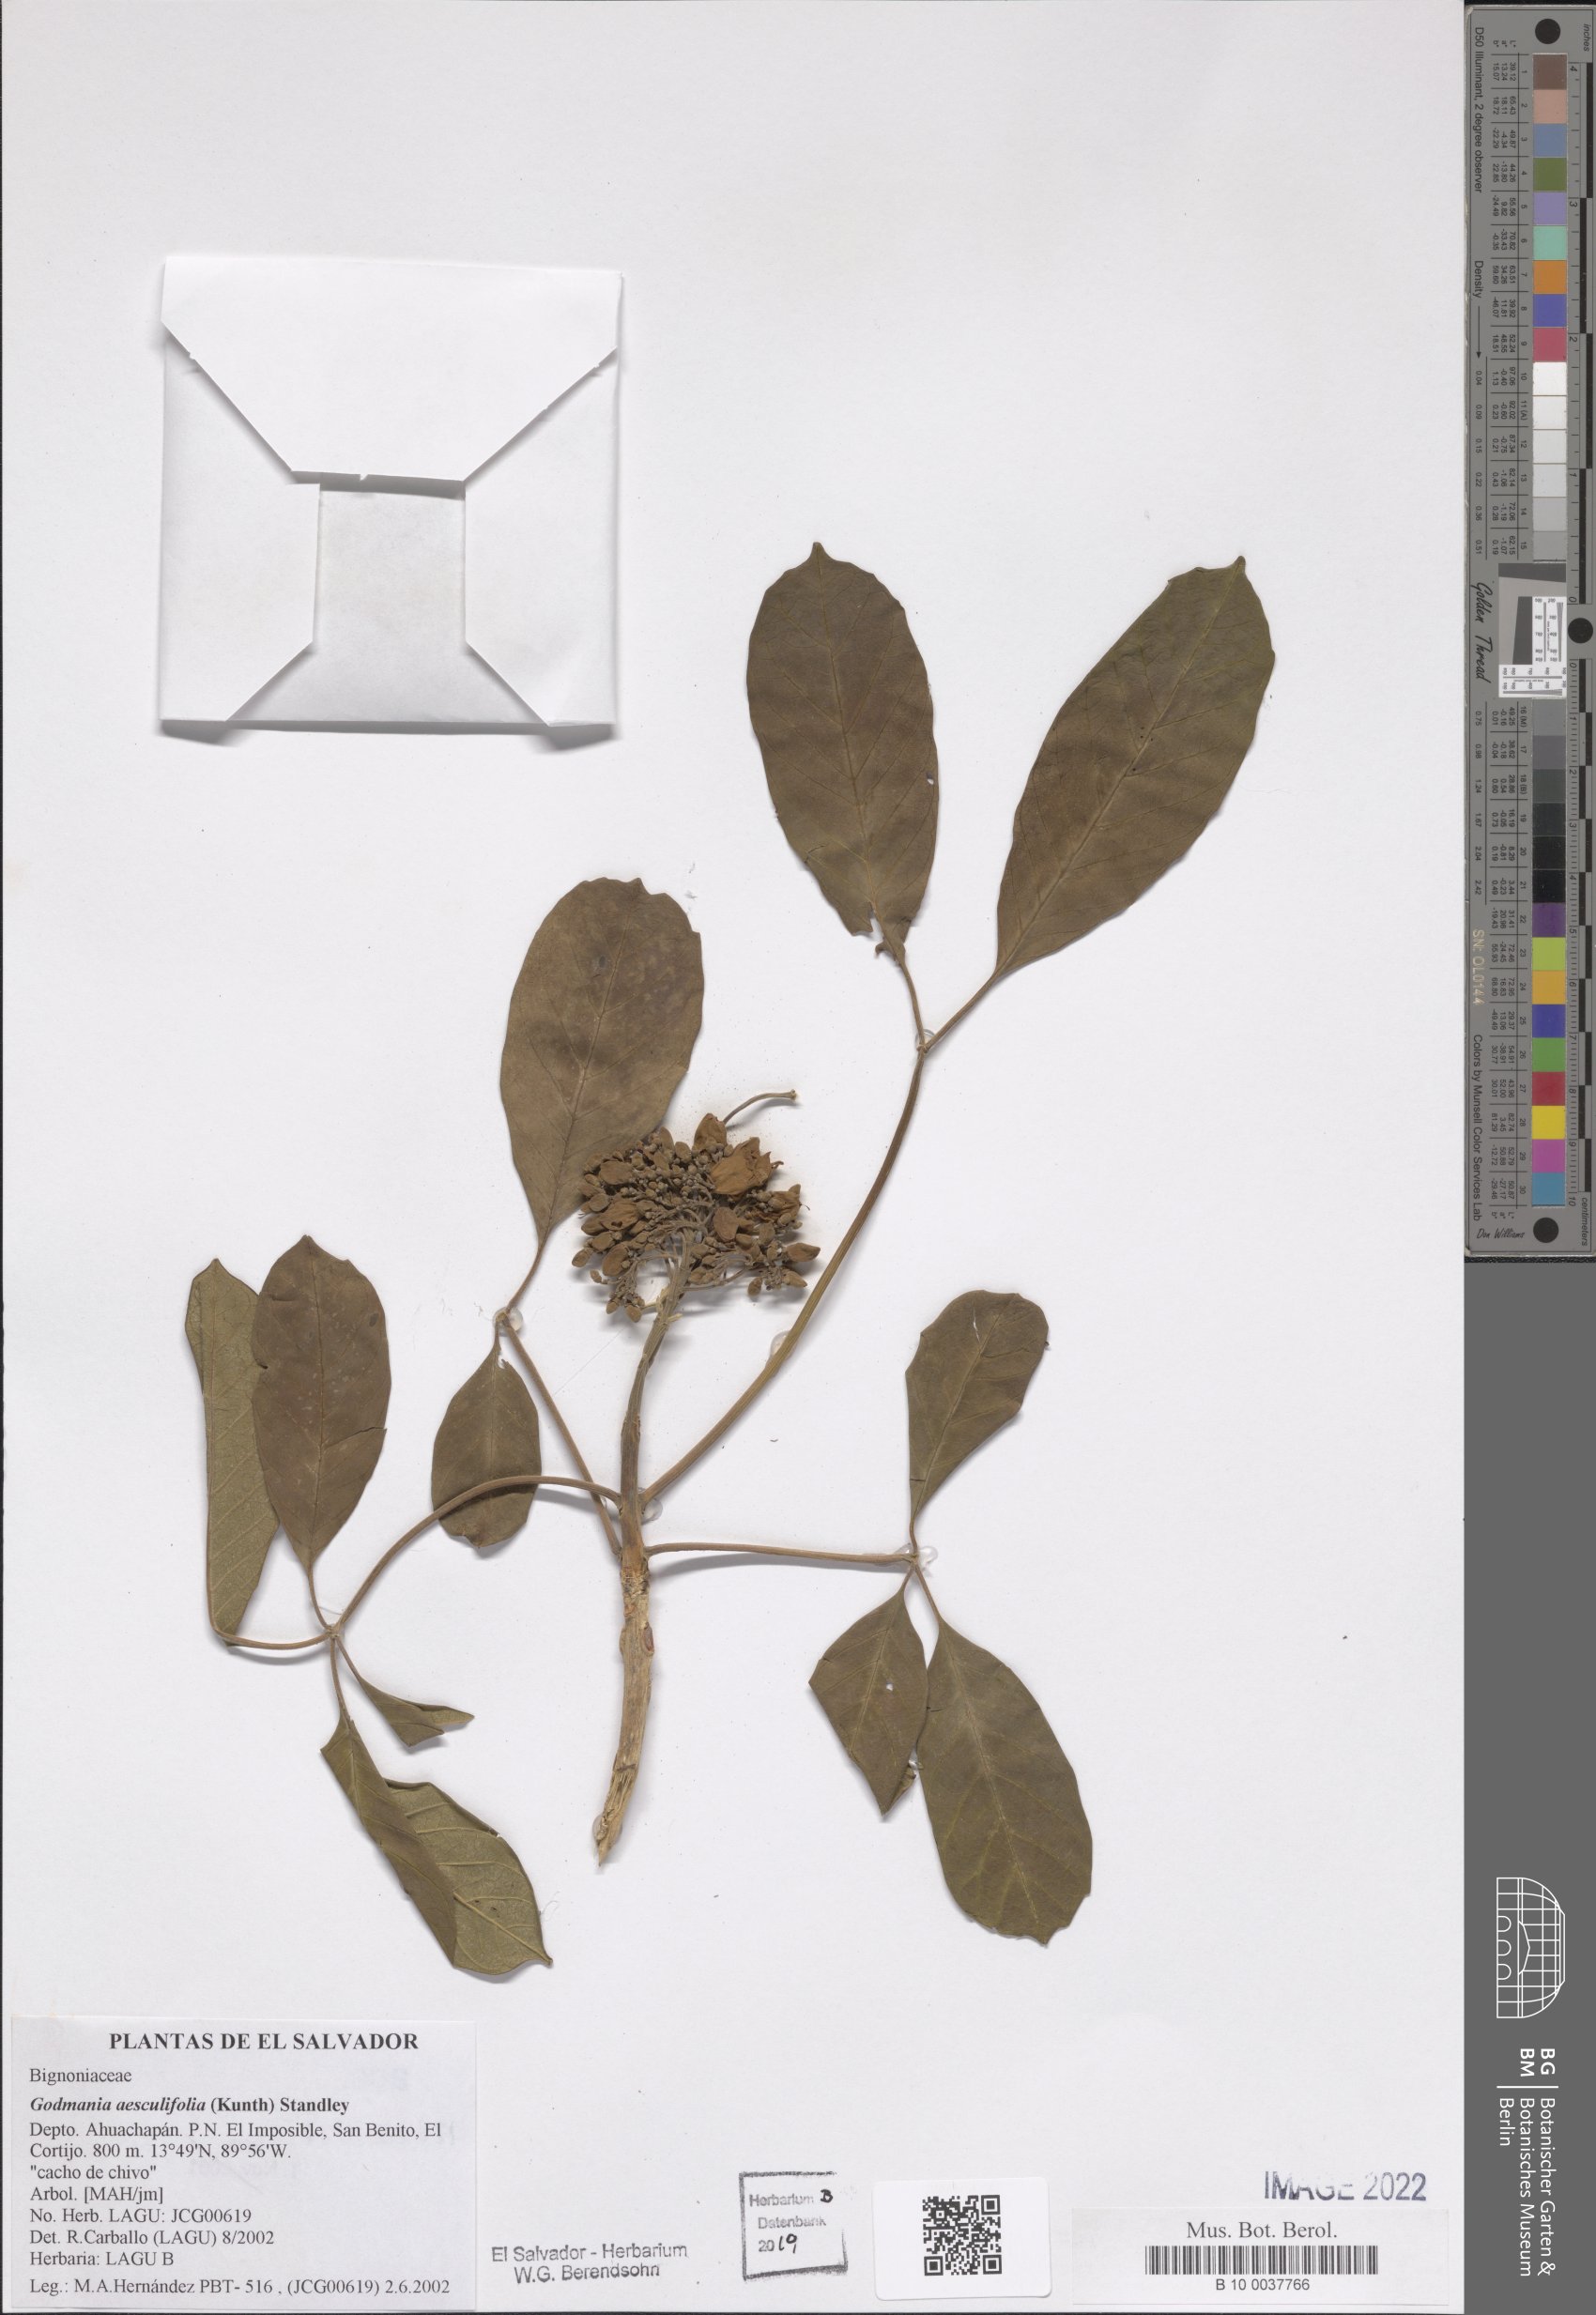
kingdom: Plantae
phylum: Tracheophyta
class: Magnoliopsida
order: Lamiales
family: Bignoniaceae
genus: Godmania
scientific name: Godmania aesculifolia
